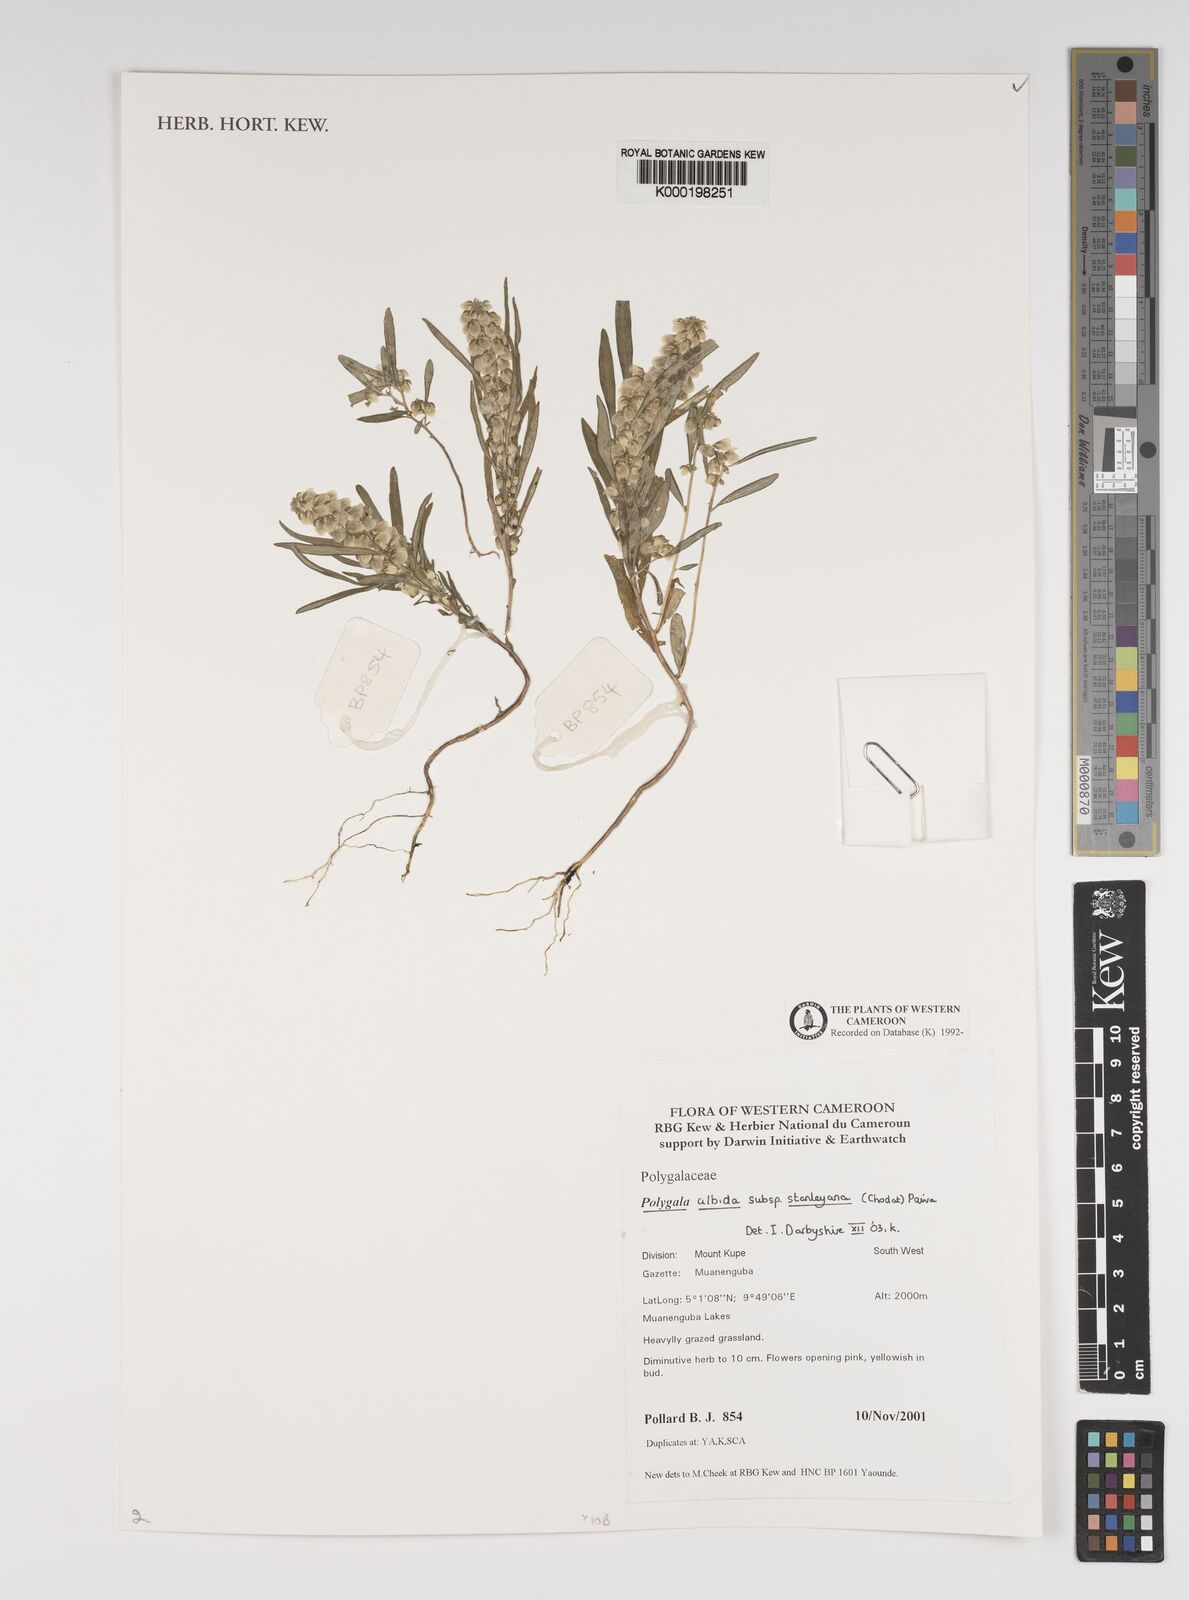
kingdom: Plantae
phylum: Tracheophyta
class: Magnoliopsida
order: Fabales
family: Polygalaceae
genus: Polygala
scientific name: Polygala albida
